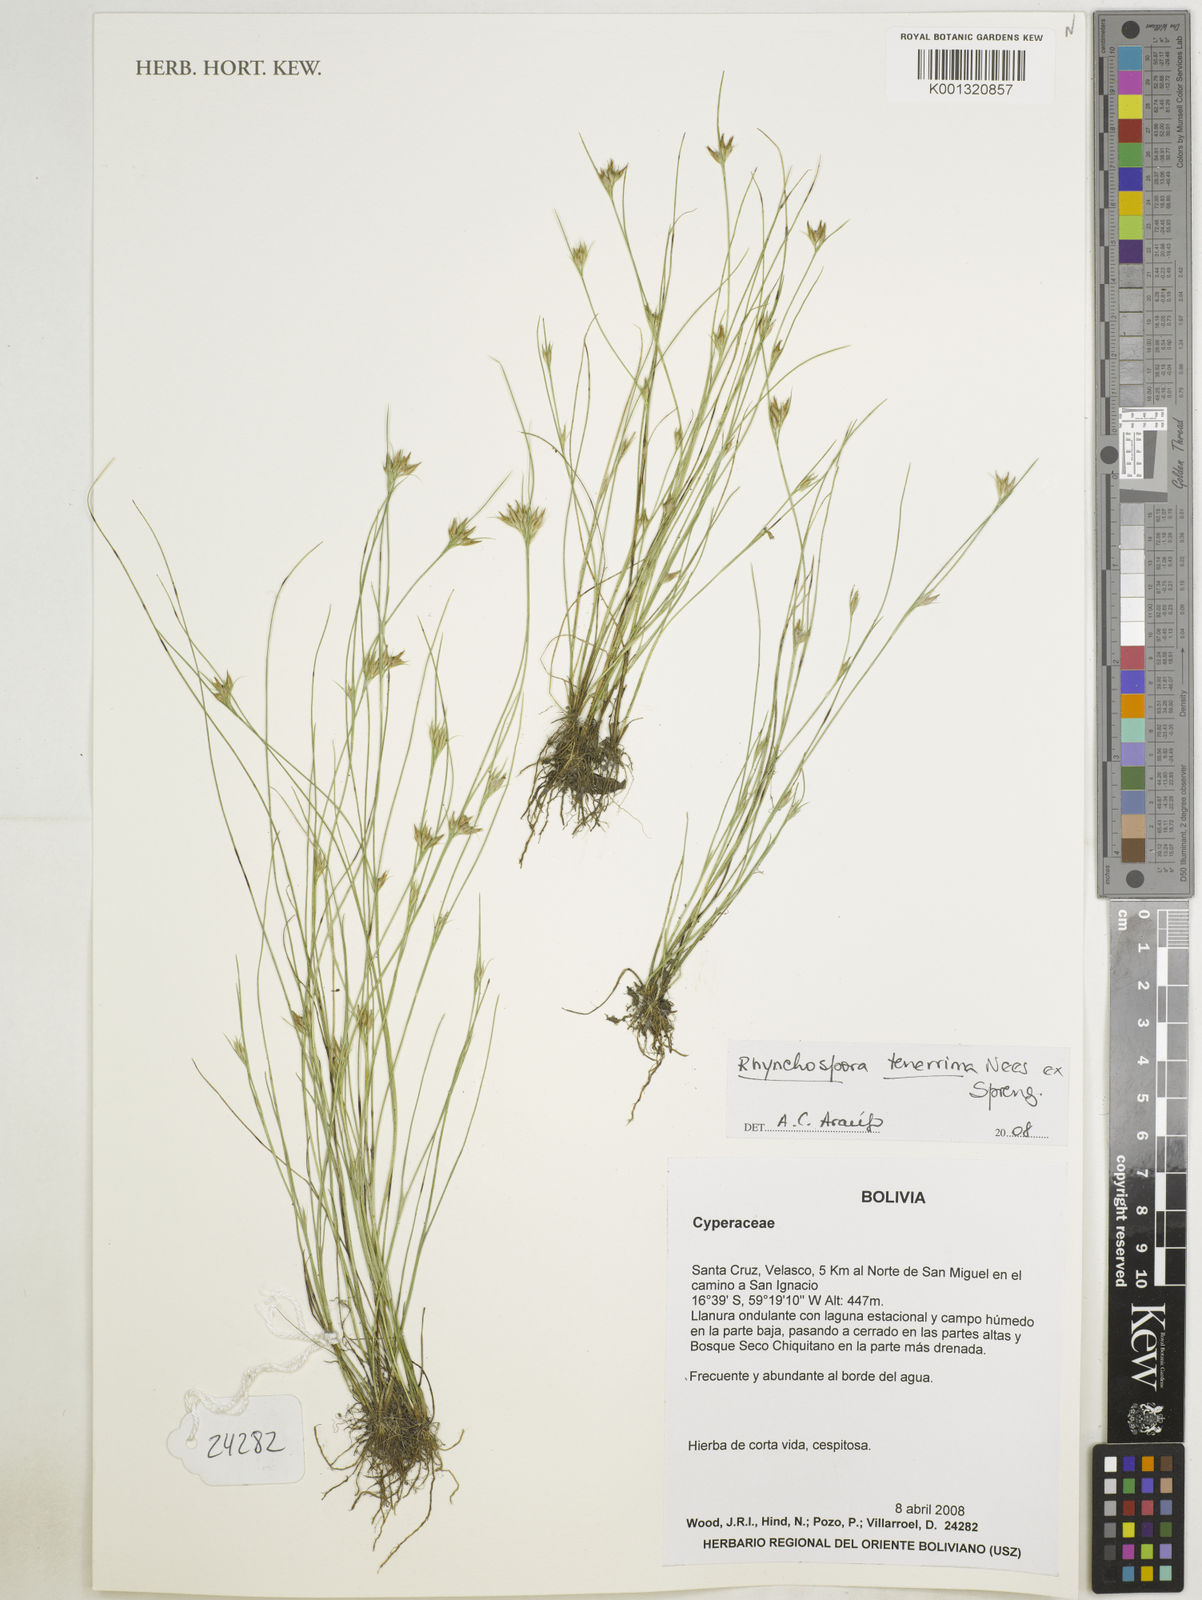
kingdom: Plantae
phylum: Tracheophyta
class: Liliopsida
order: Poales
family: Cyperaceae
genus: Rhynchospora
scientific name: Rhynchospora tenerrima
